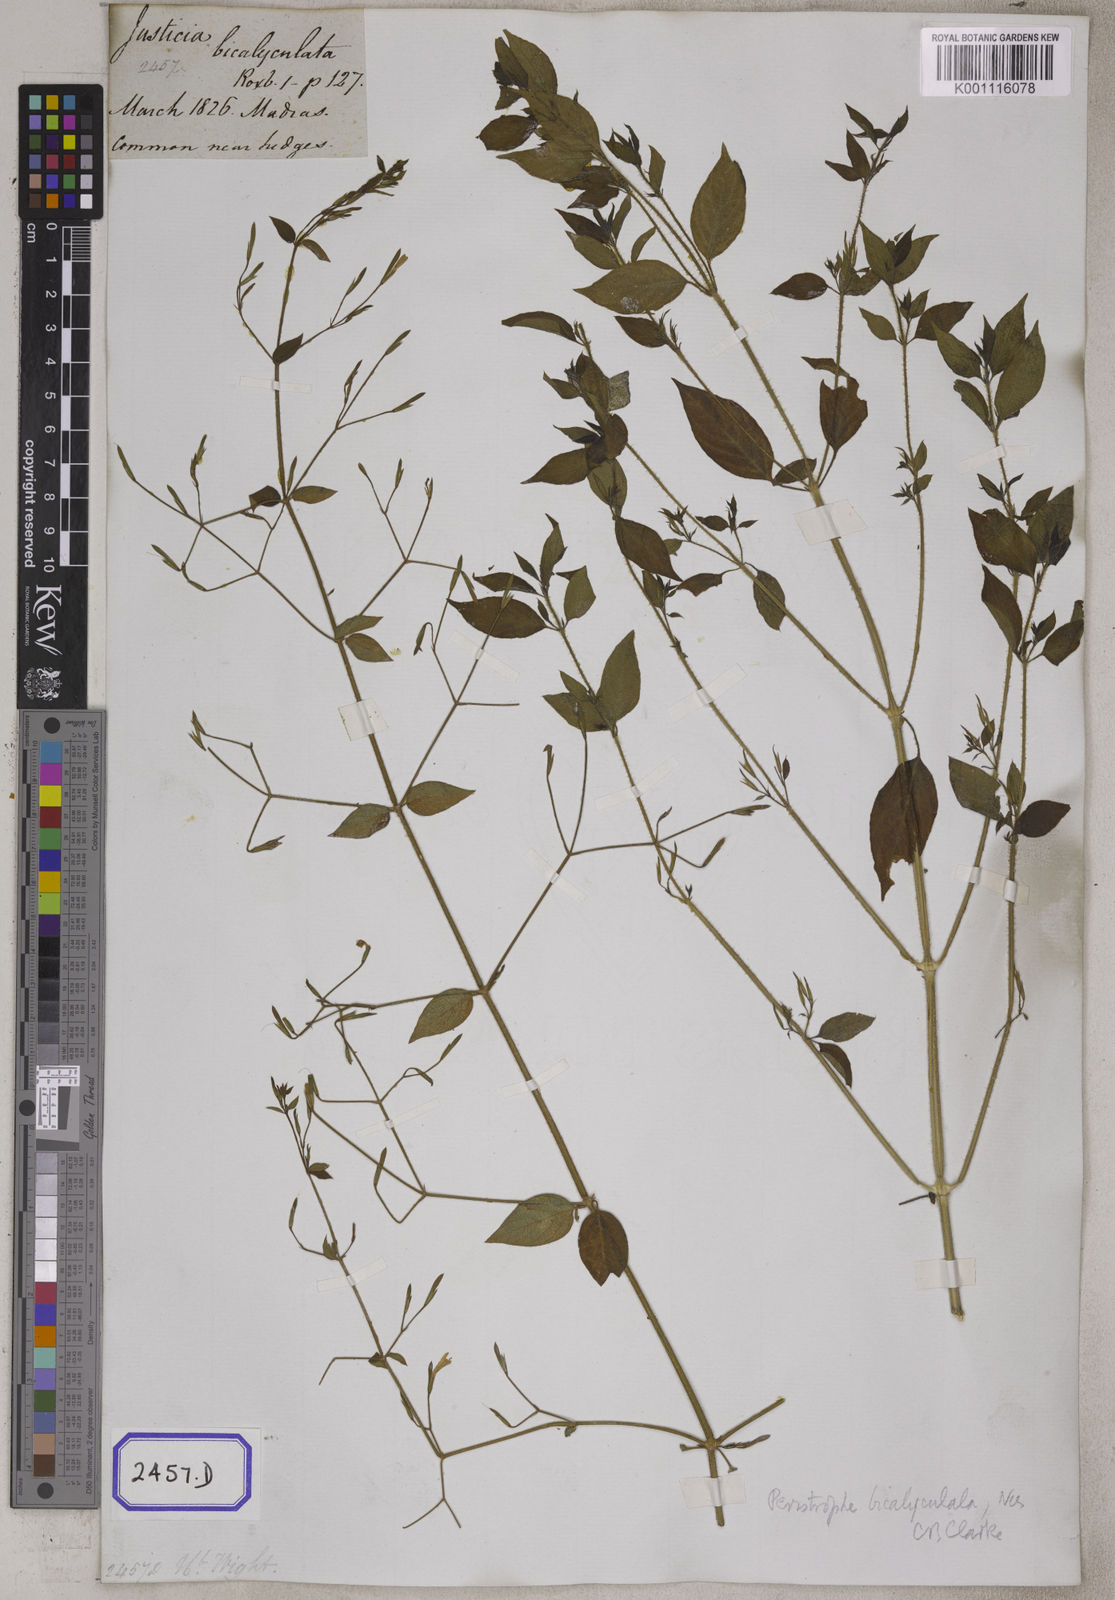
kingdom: Plantae
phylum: Tracheophyta
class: Magnoliopsida
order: Lamiales
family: Acanthaceae
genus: Dicliptera
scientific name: Dicliptera paniculata
